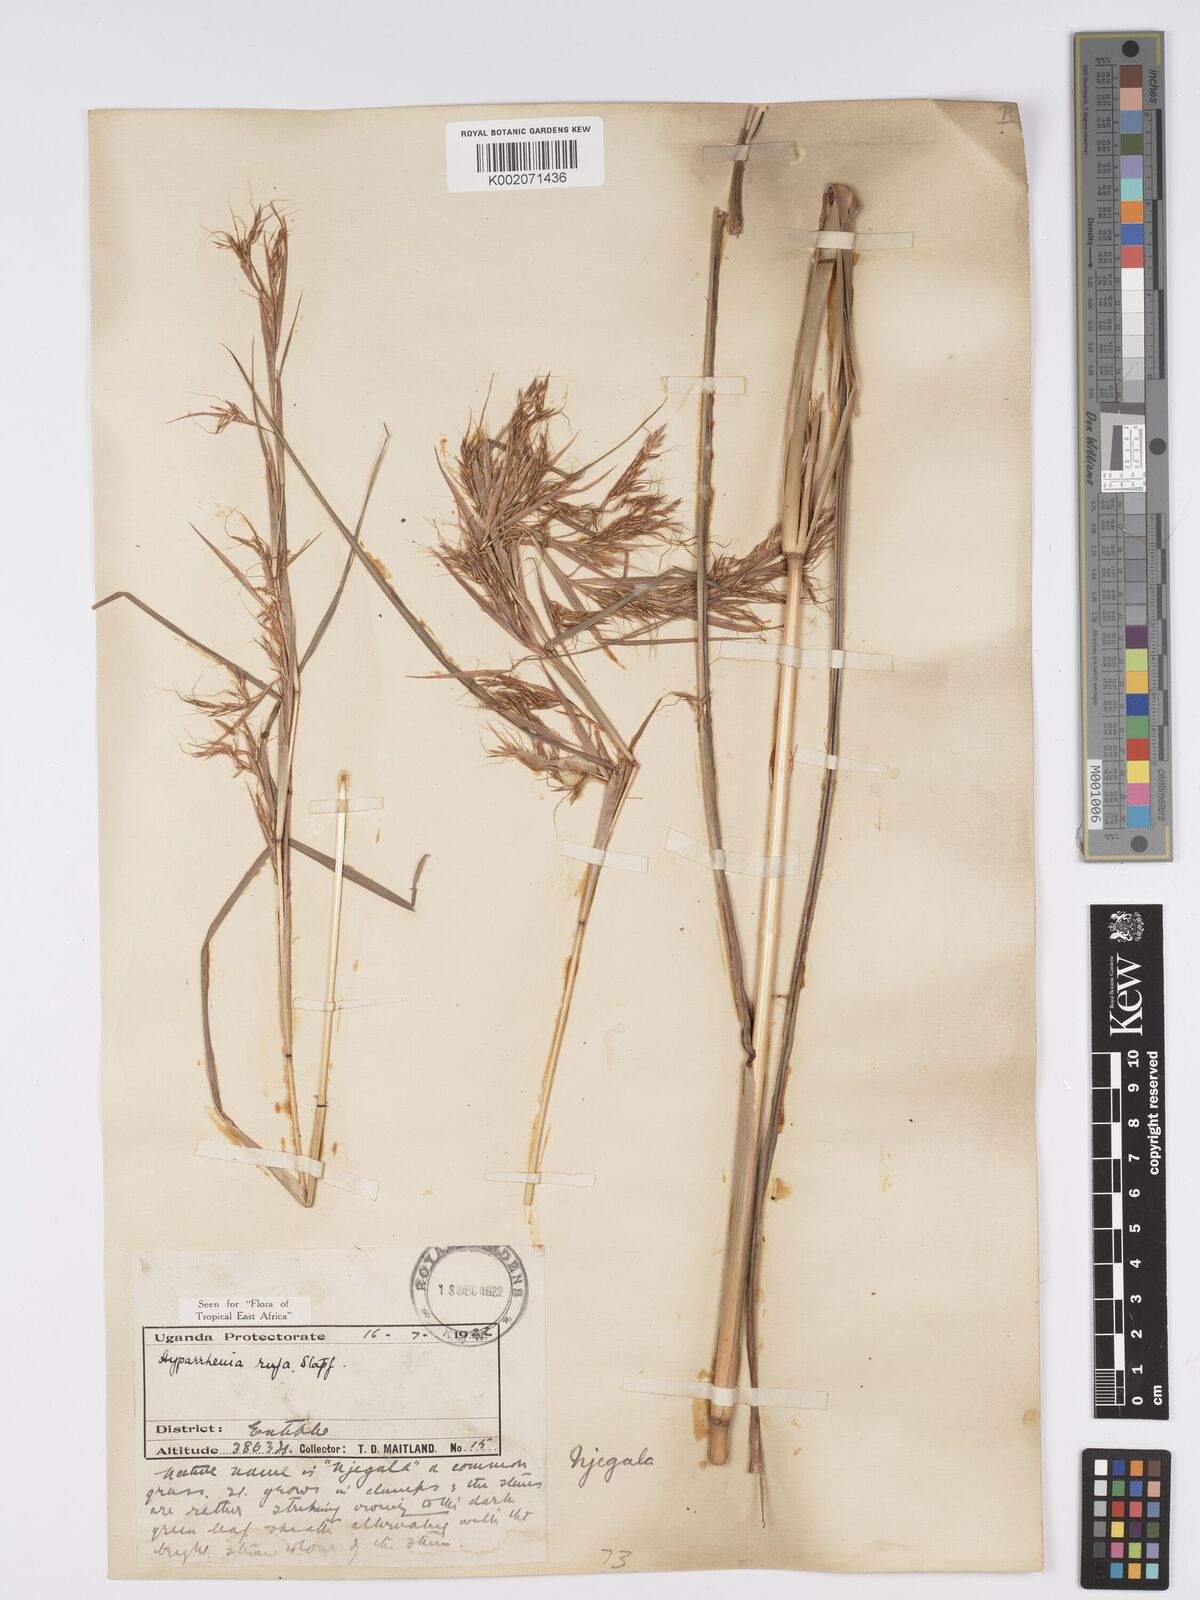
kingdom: Plantae
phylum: Tracheophyta
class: Liliopsida
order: Poales
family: Poaceae
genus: Hyparrhenia
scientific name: Hyparrhenia rufa
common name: Jaraguagrass
